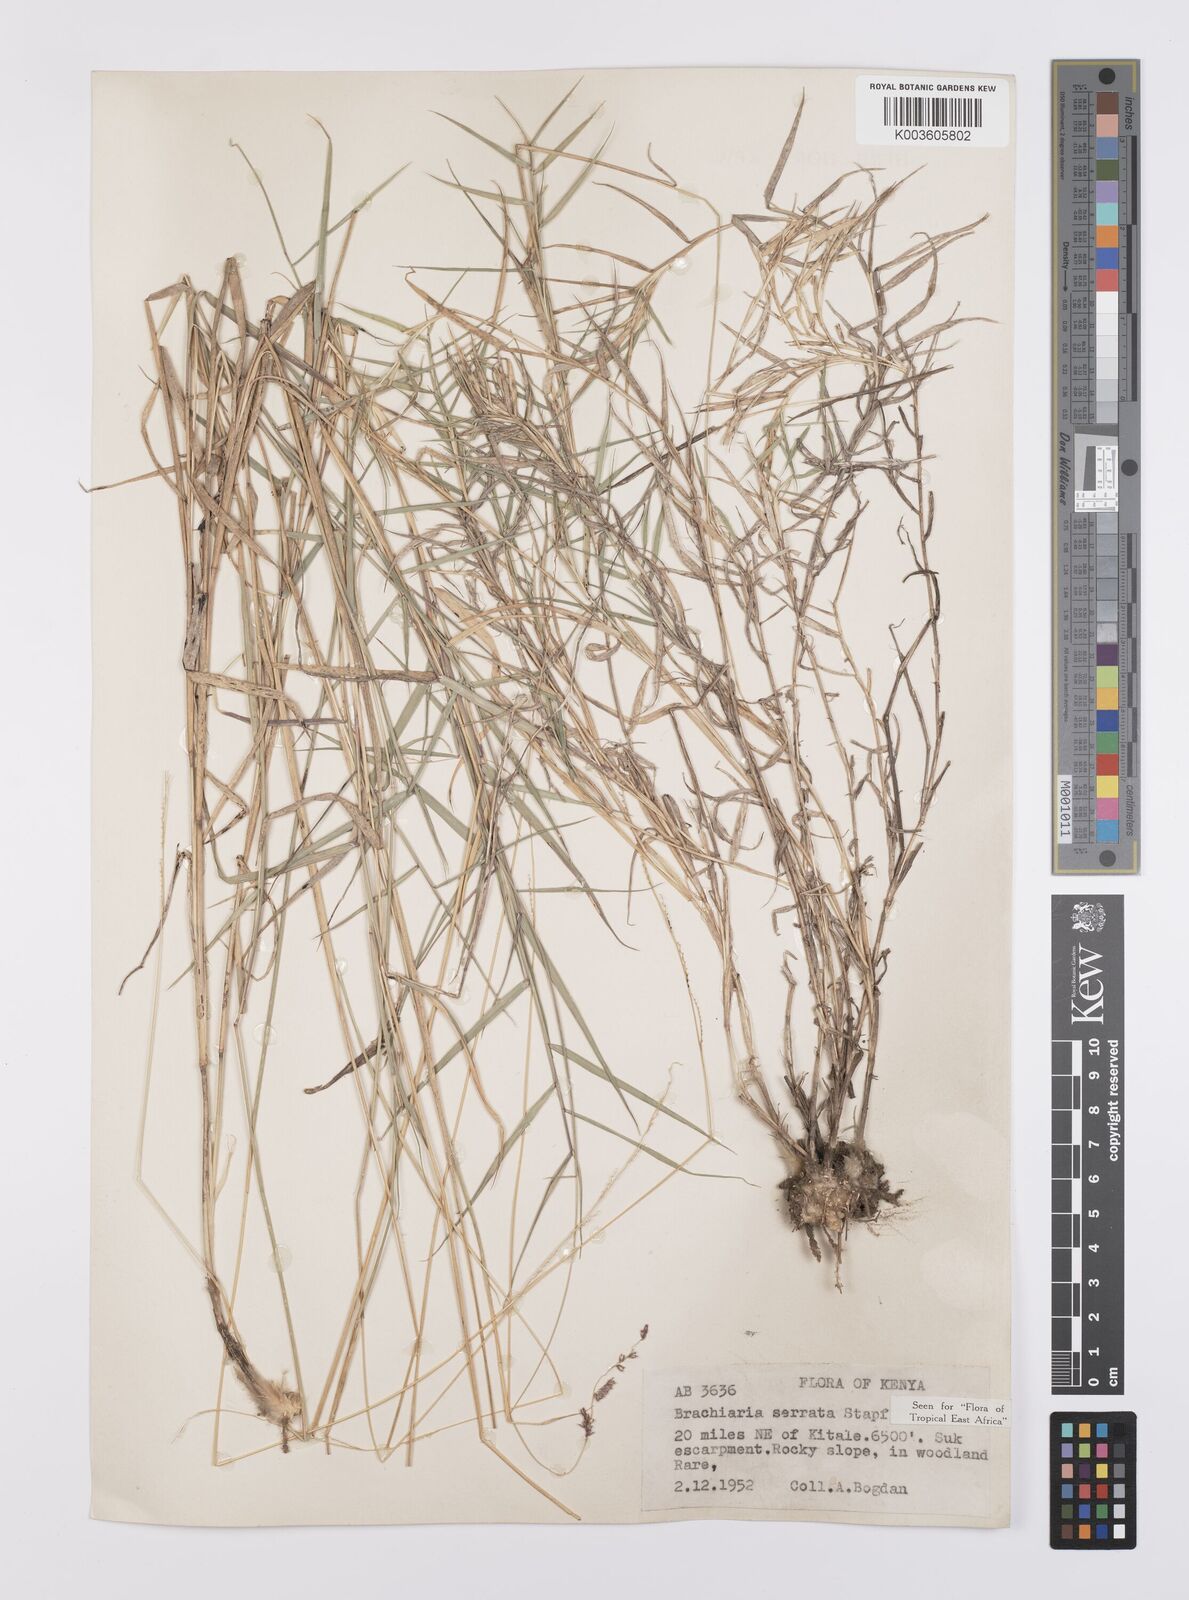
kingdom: Plantae
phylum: Tracheophyta
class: Liliopsida
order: Poales
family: Poaceae
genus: Urochloa
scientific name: Urochloa serrata
